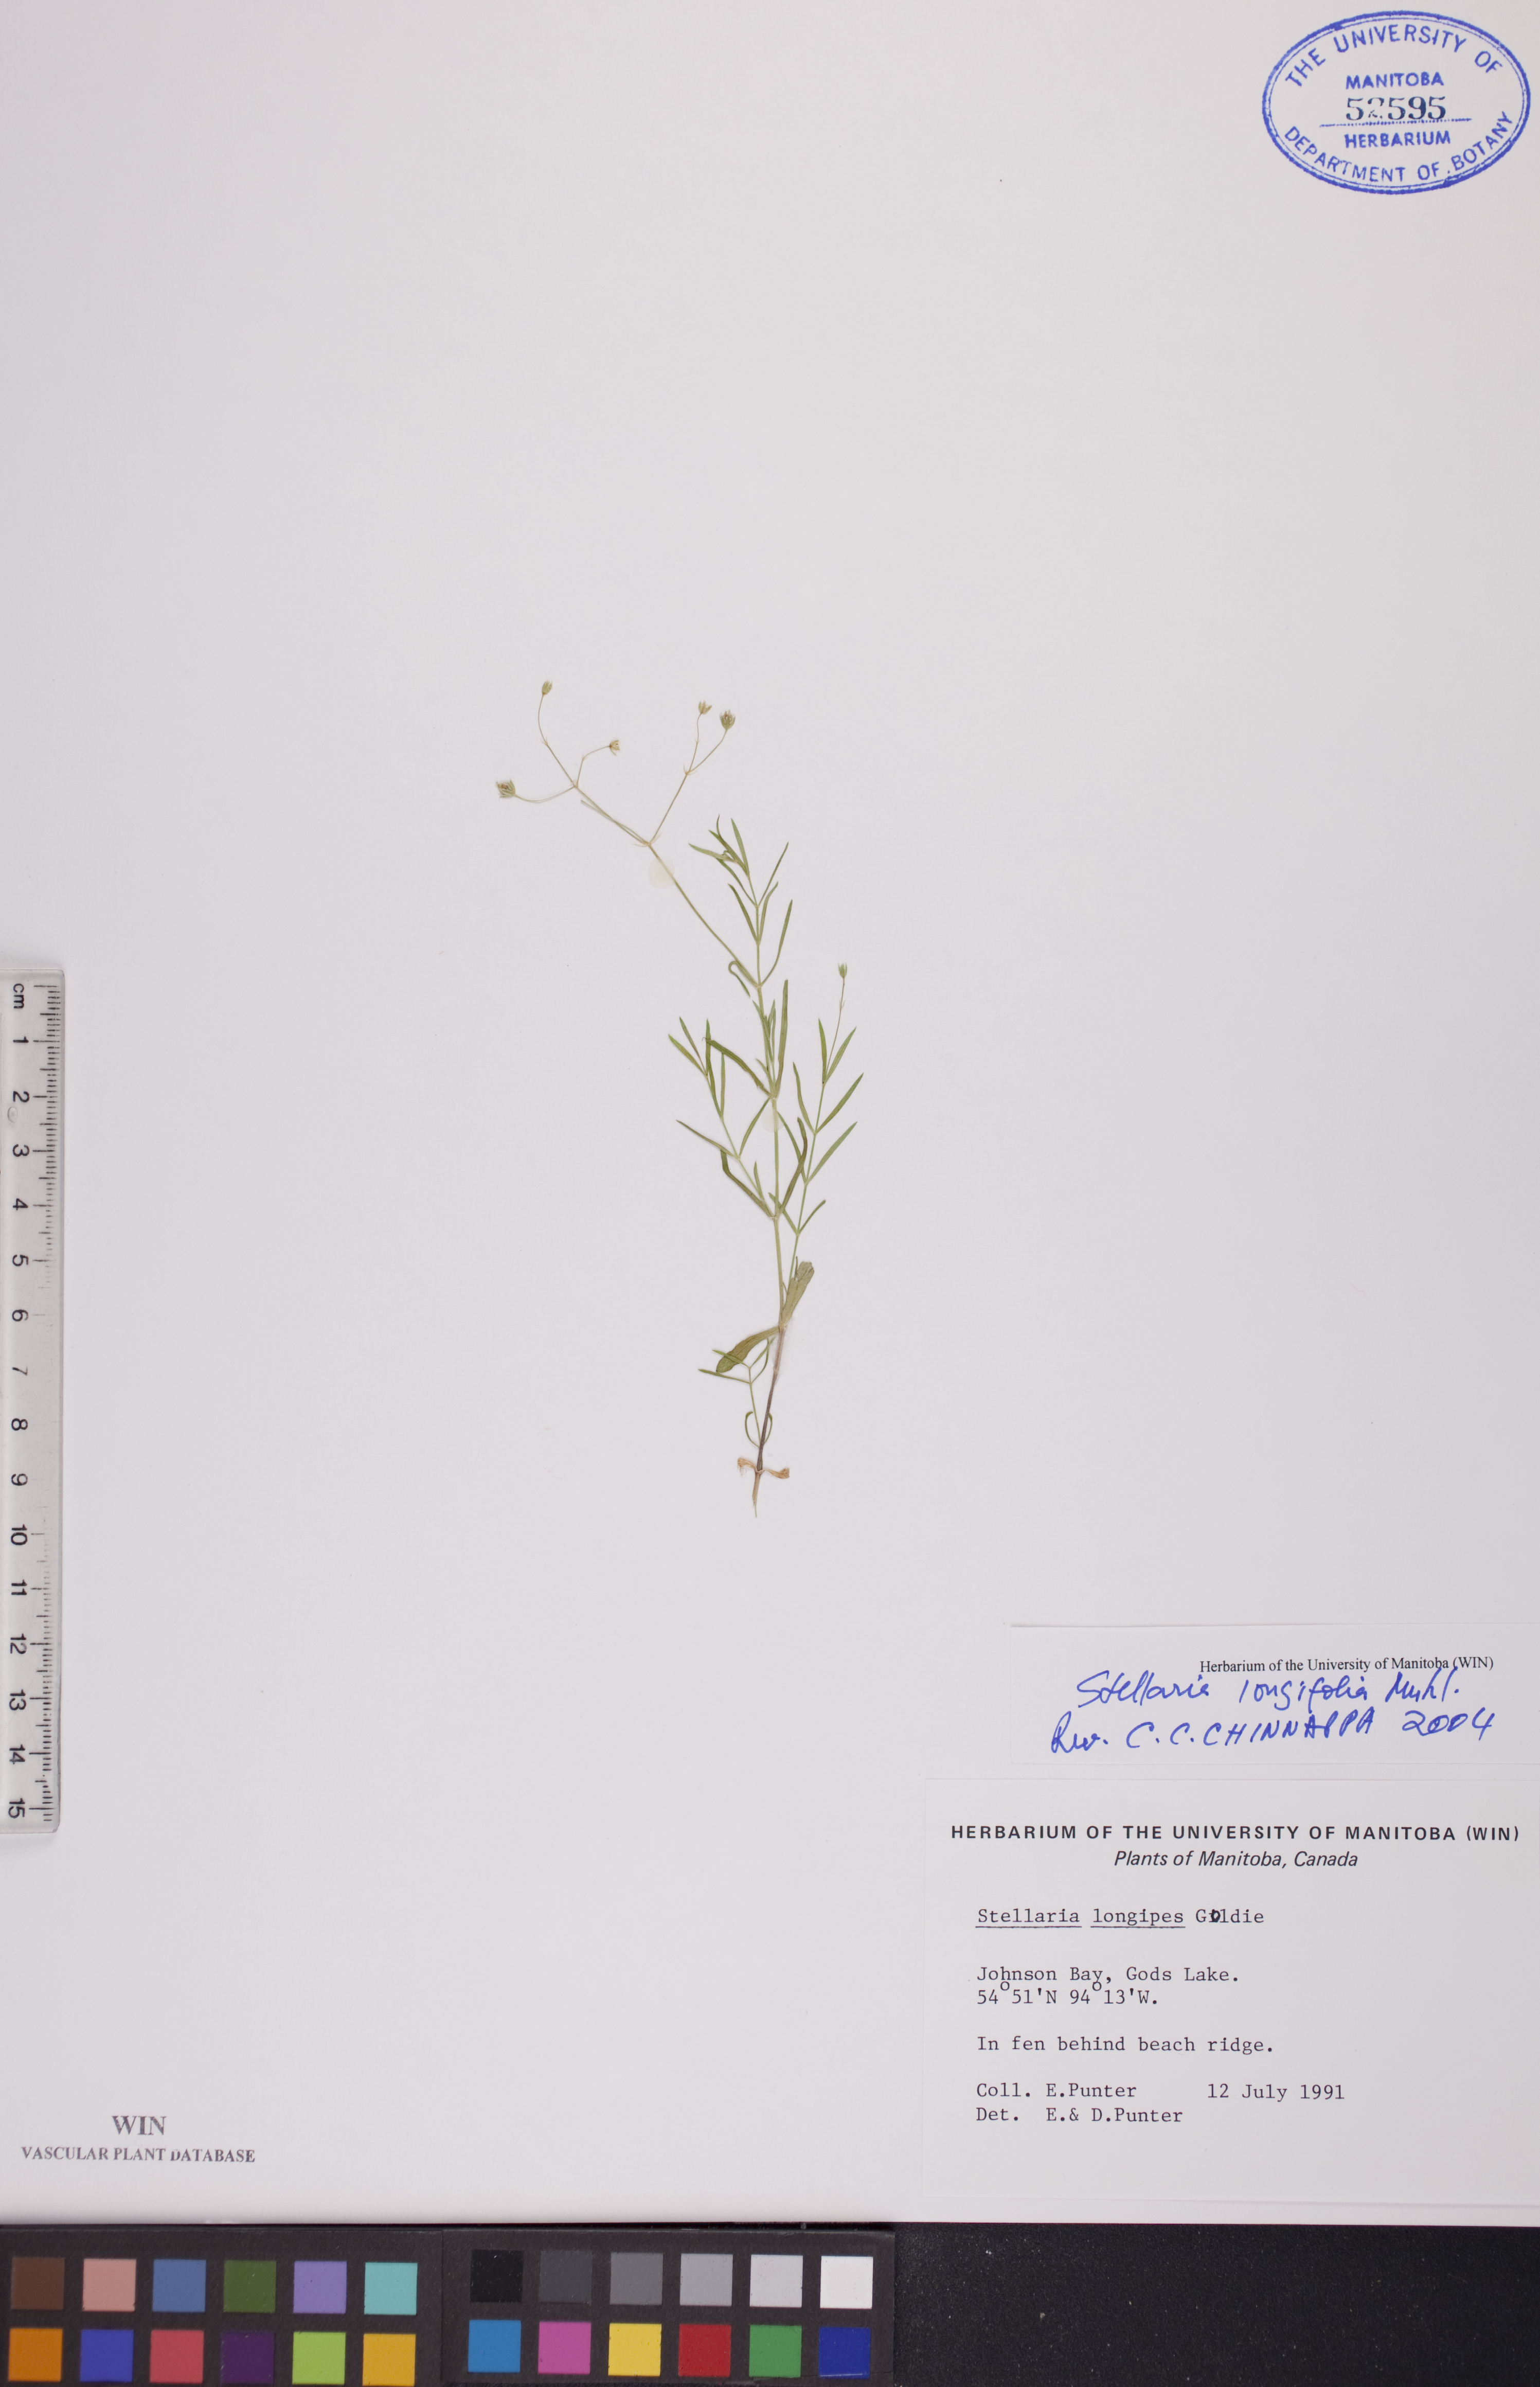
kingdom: Plantae
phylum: Tracheophyta
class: Magnoliopsida
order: Caryophyllales
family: Caryophyllaceae
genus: Stellaria
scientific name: Stellaria longifolia
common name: Long-leaved chickweed
